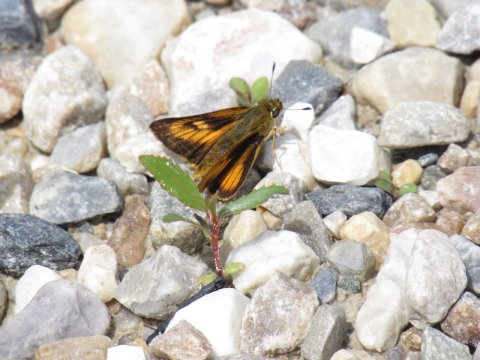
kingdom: Animalia
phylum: Arthropoda
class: Insecta
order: Lepidoptera
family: Hesperiidae
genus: Atrytone
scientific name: Atrytone delaware
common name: Delaware Skipper
